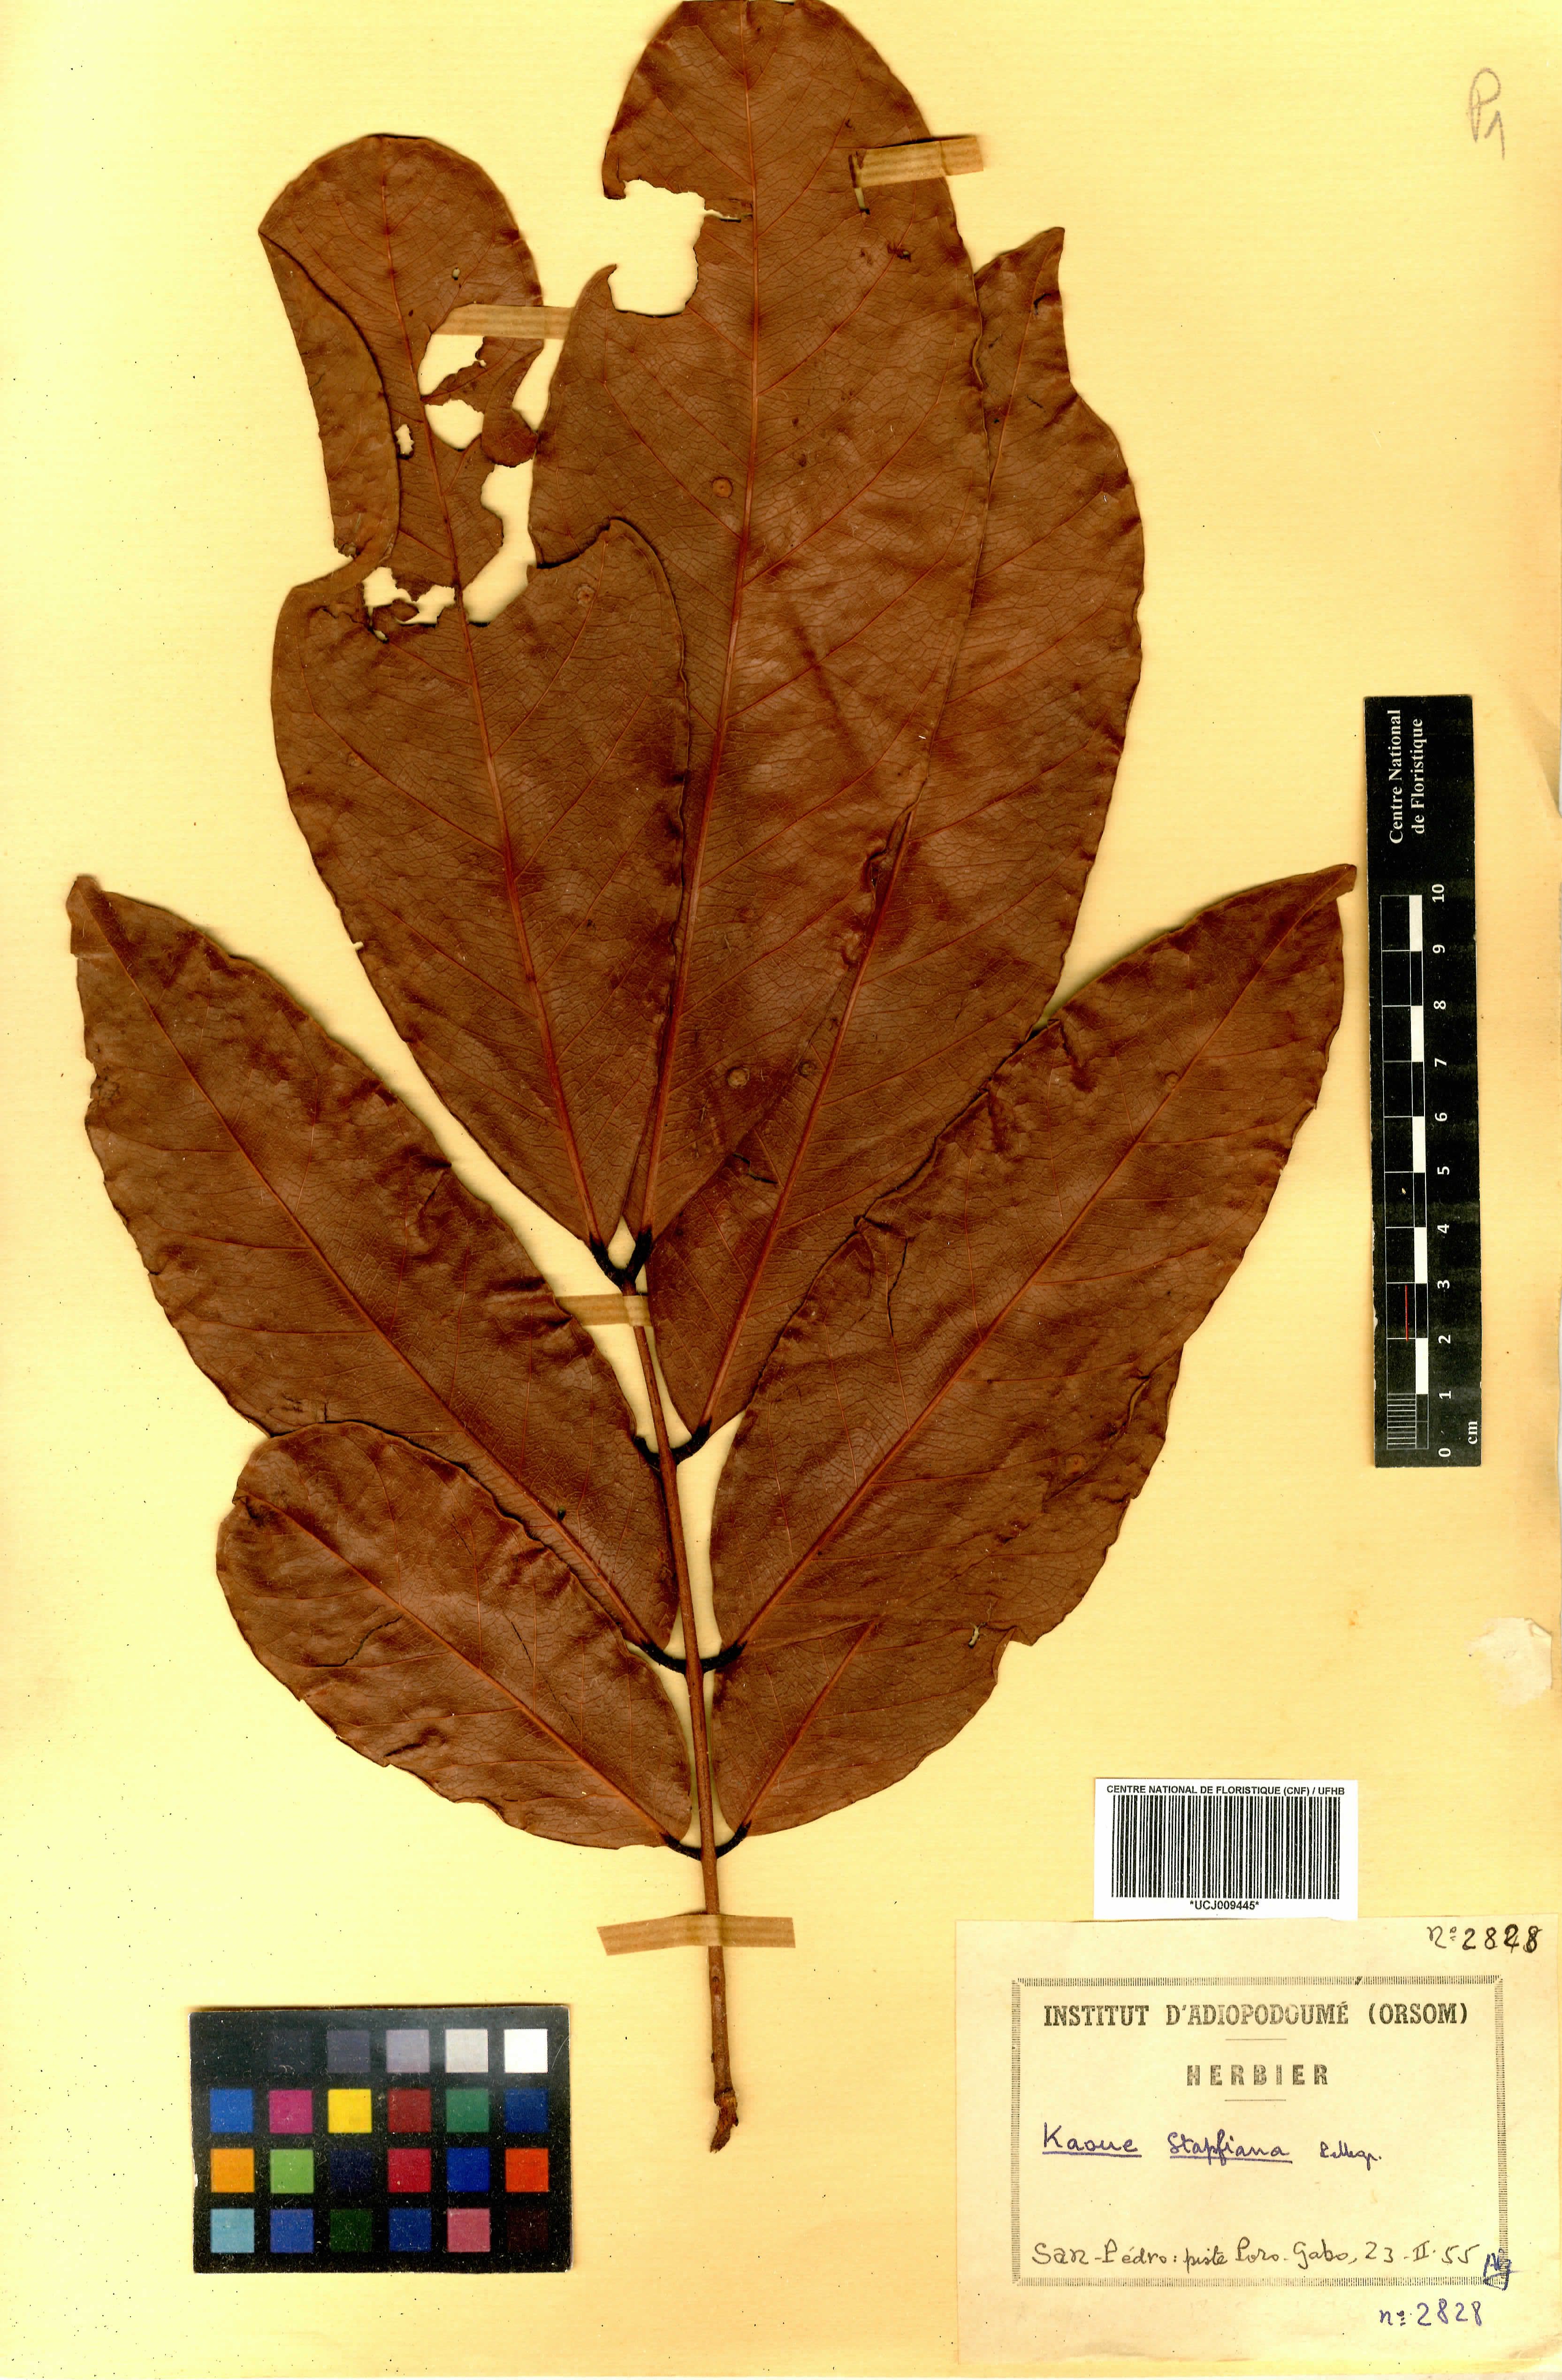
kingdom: Plantae
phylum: Tracheophyta
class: Magnoliopsida
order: Fabales
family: Fabaceae
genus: Stachyothyrsus
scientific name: Stachyothyrsus stapfiana
